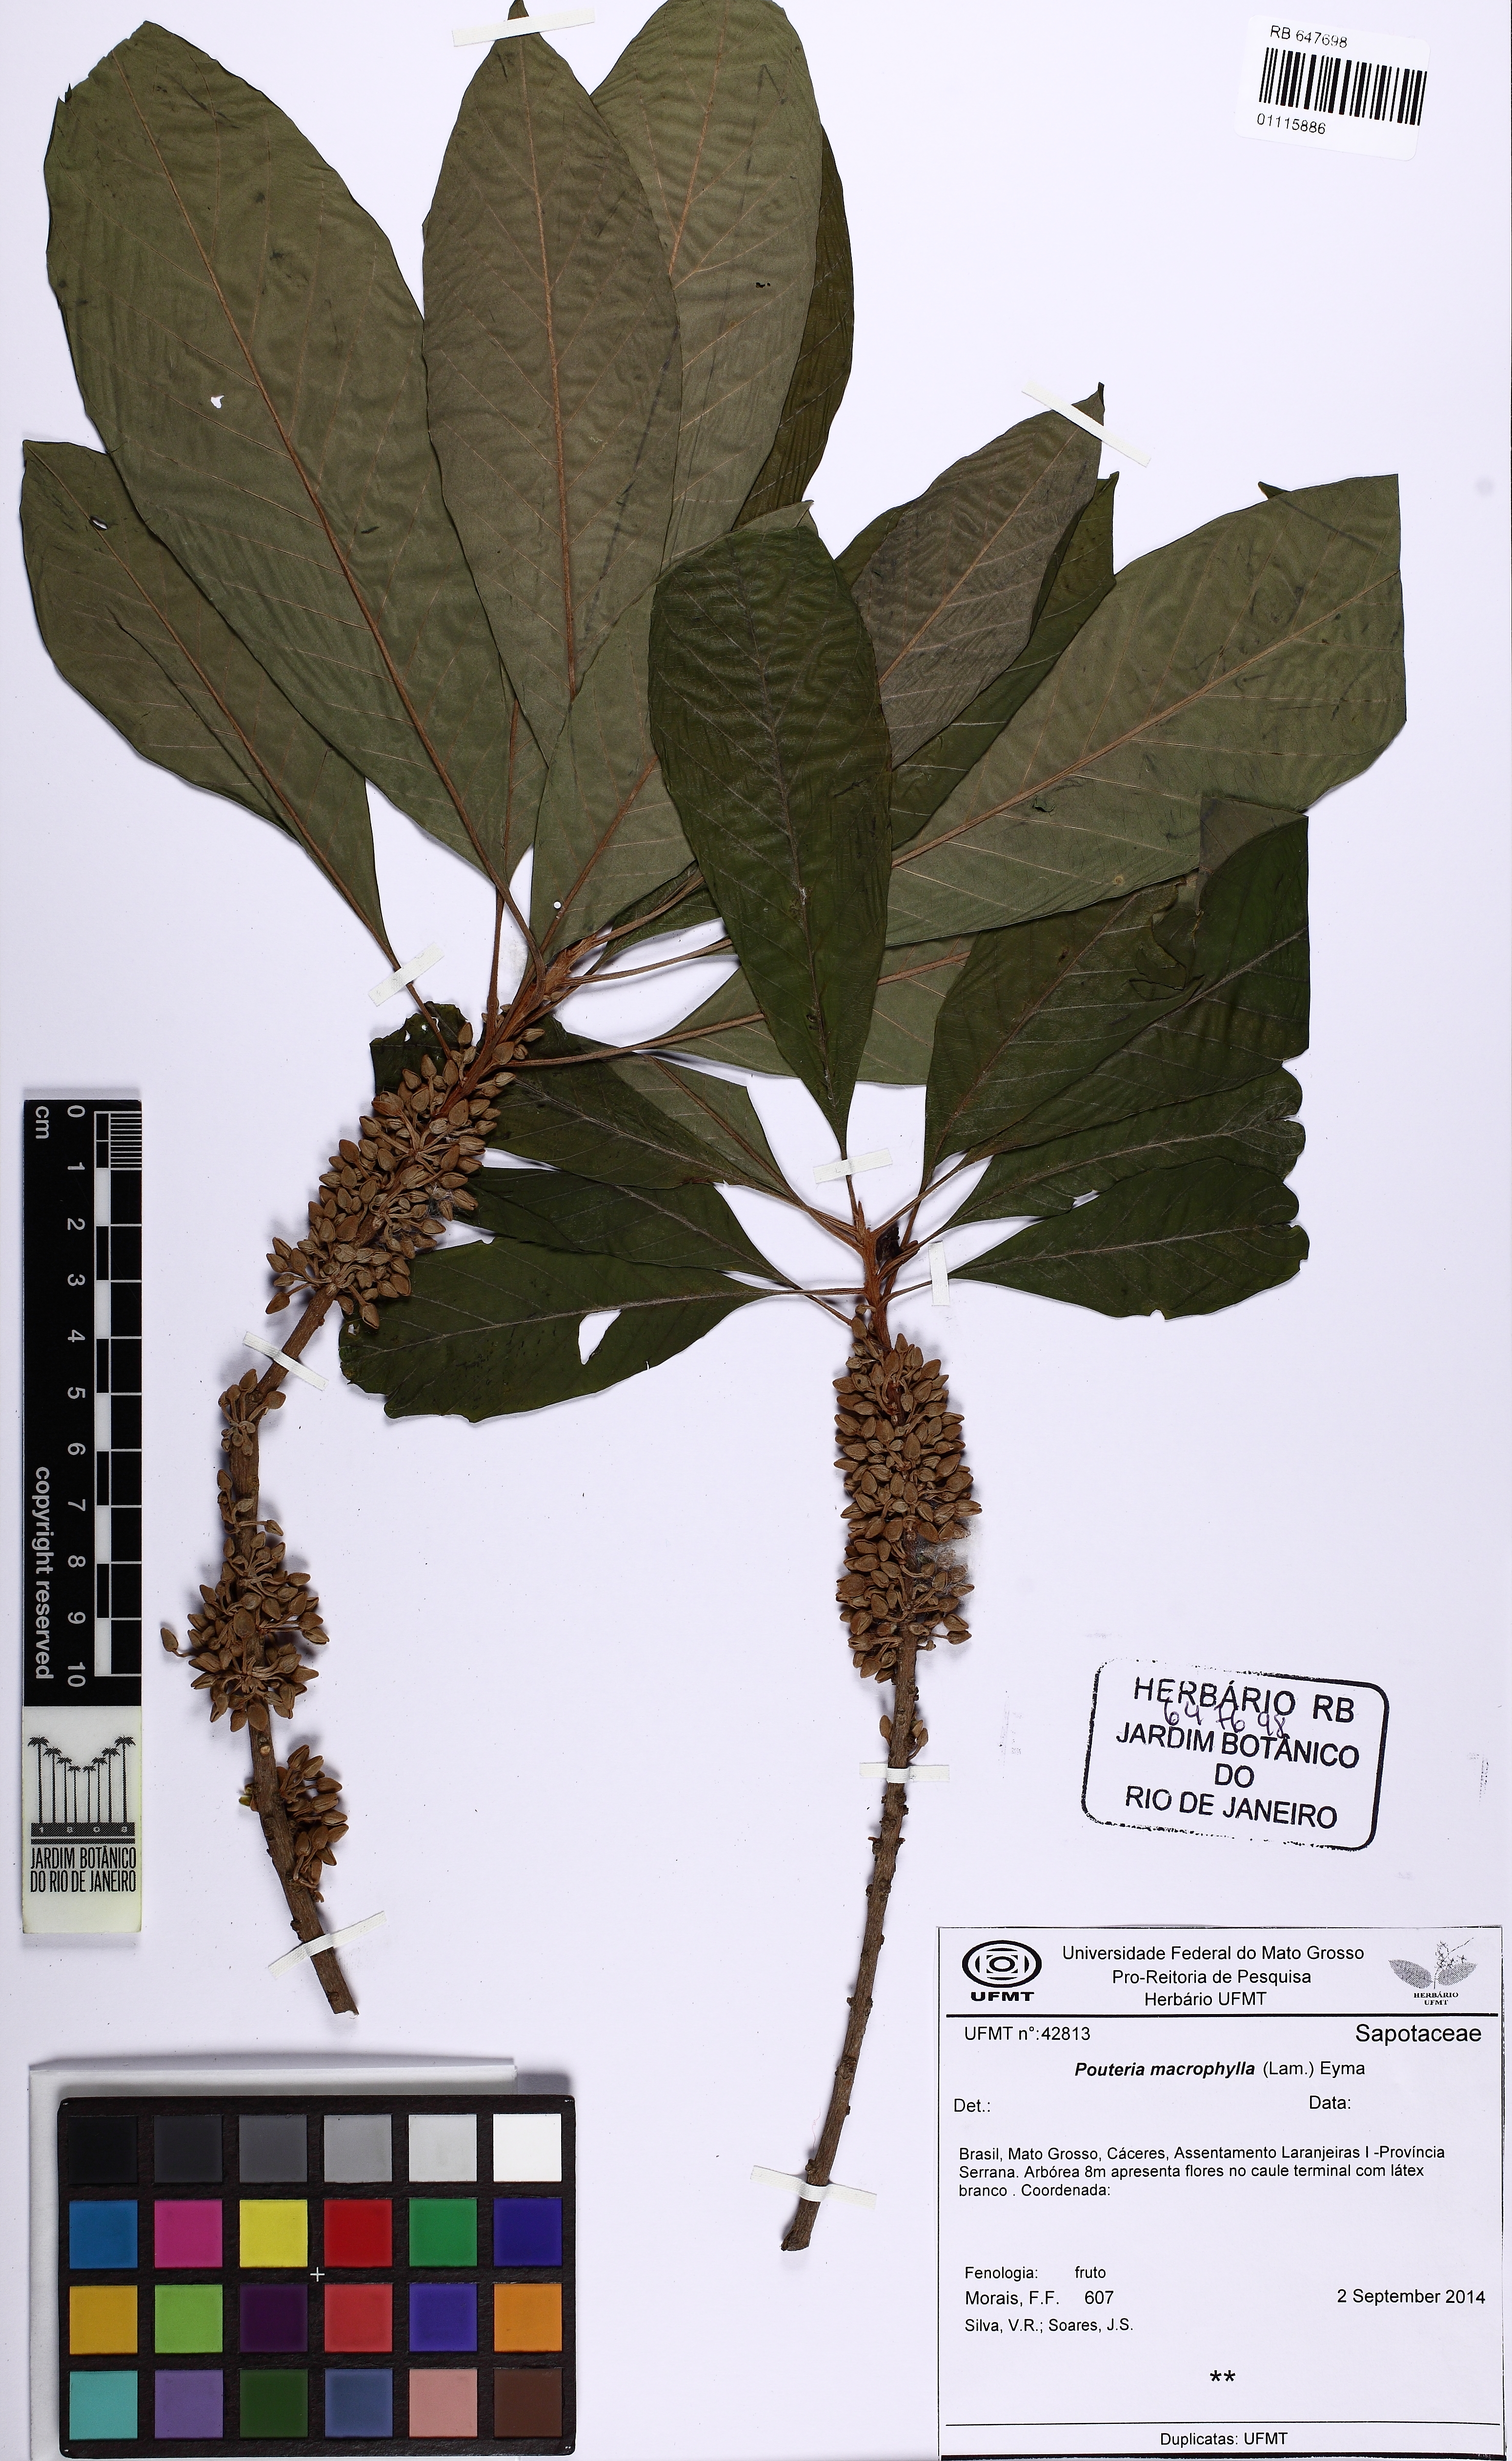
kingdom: Plantae
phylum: Tracheophyta
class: Magnoliopsida
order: Ericales
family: Sapotaceae
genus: Pouteria
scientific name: Pouteria macrophylla
